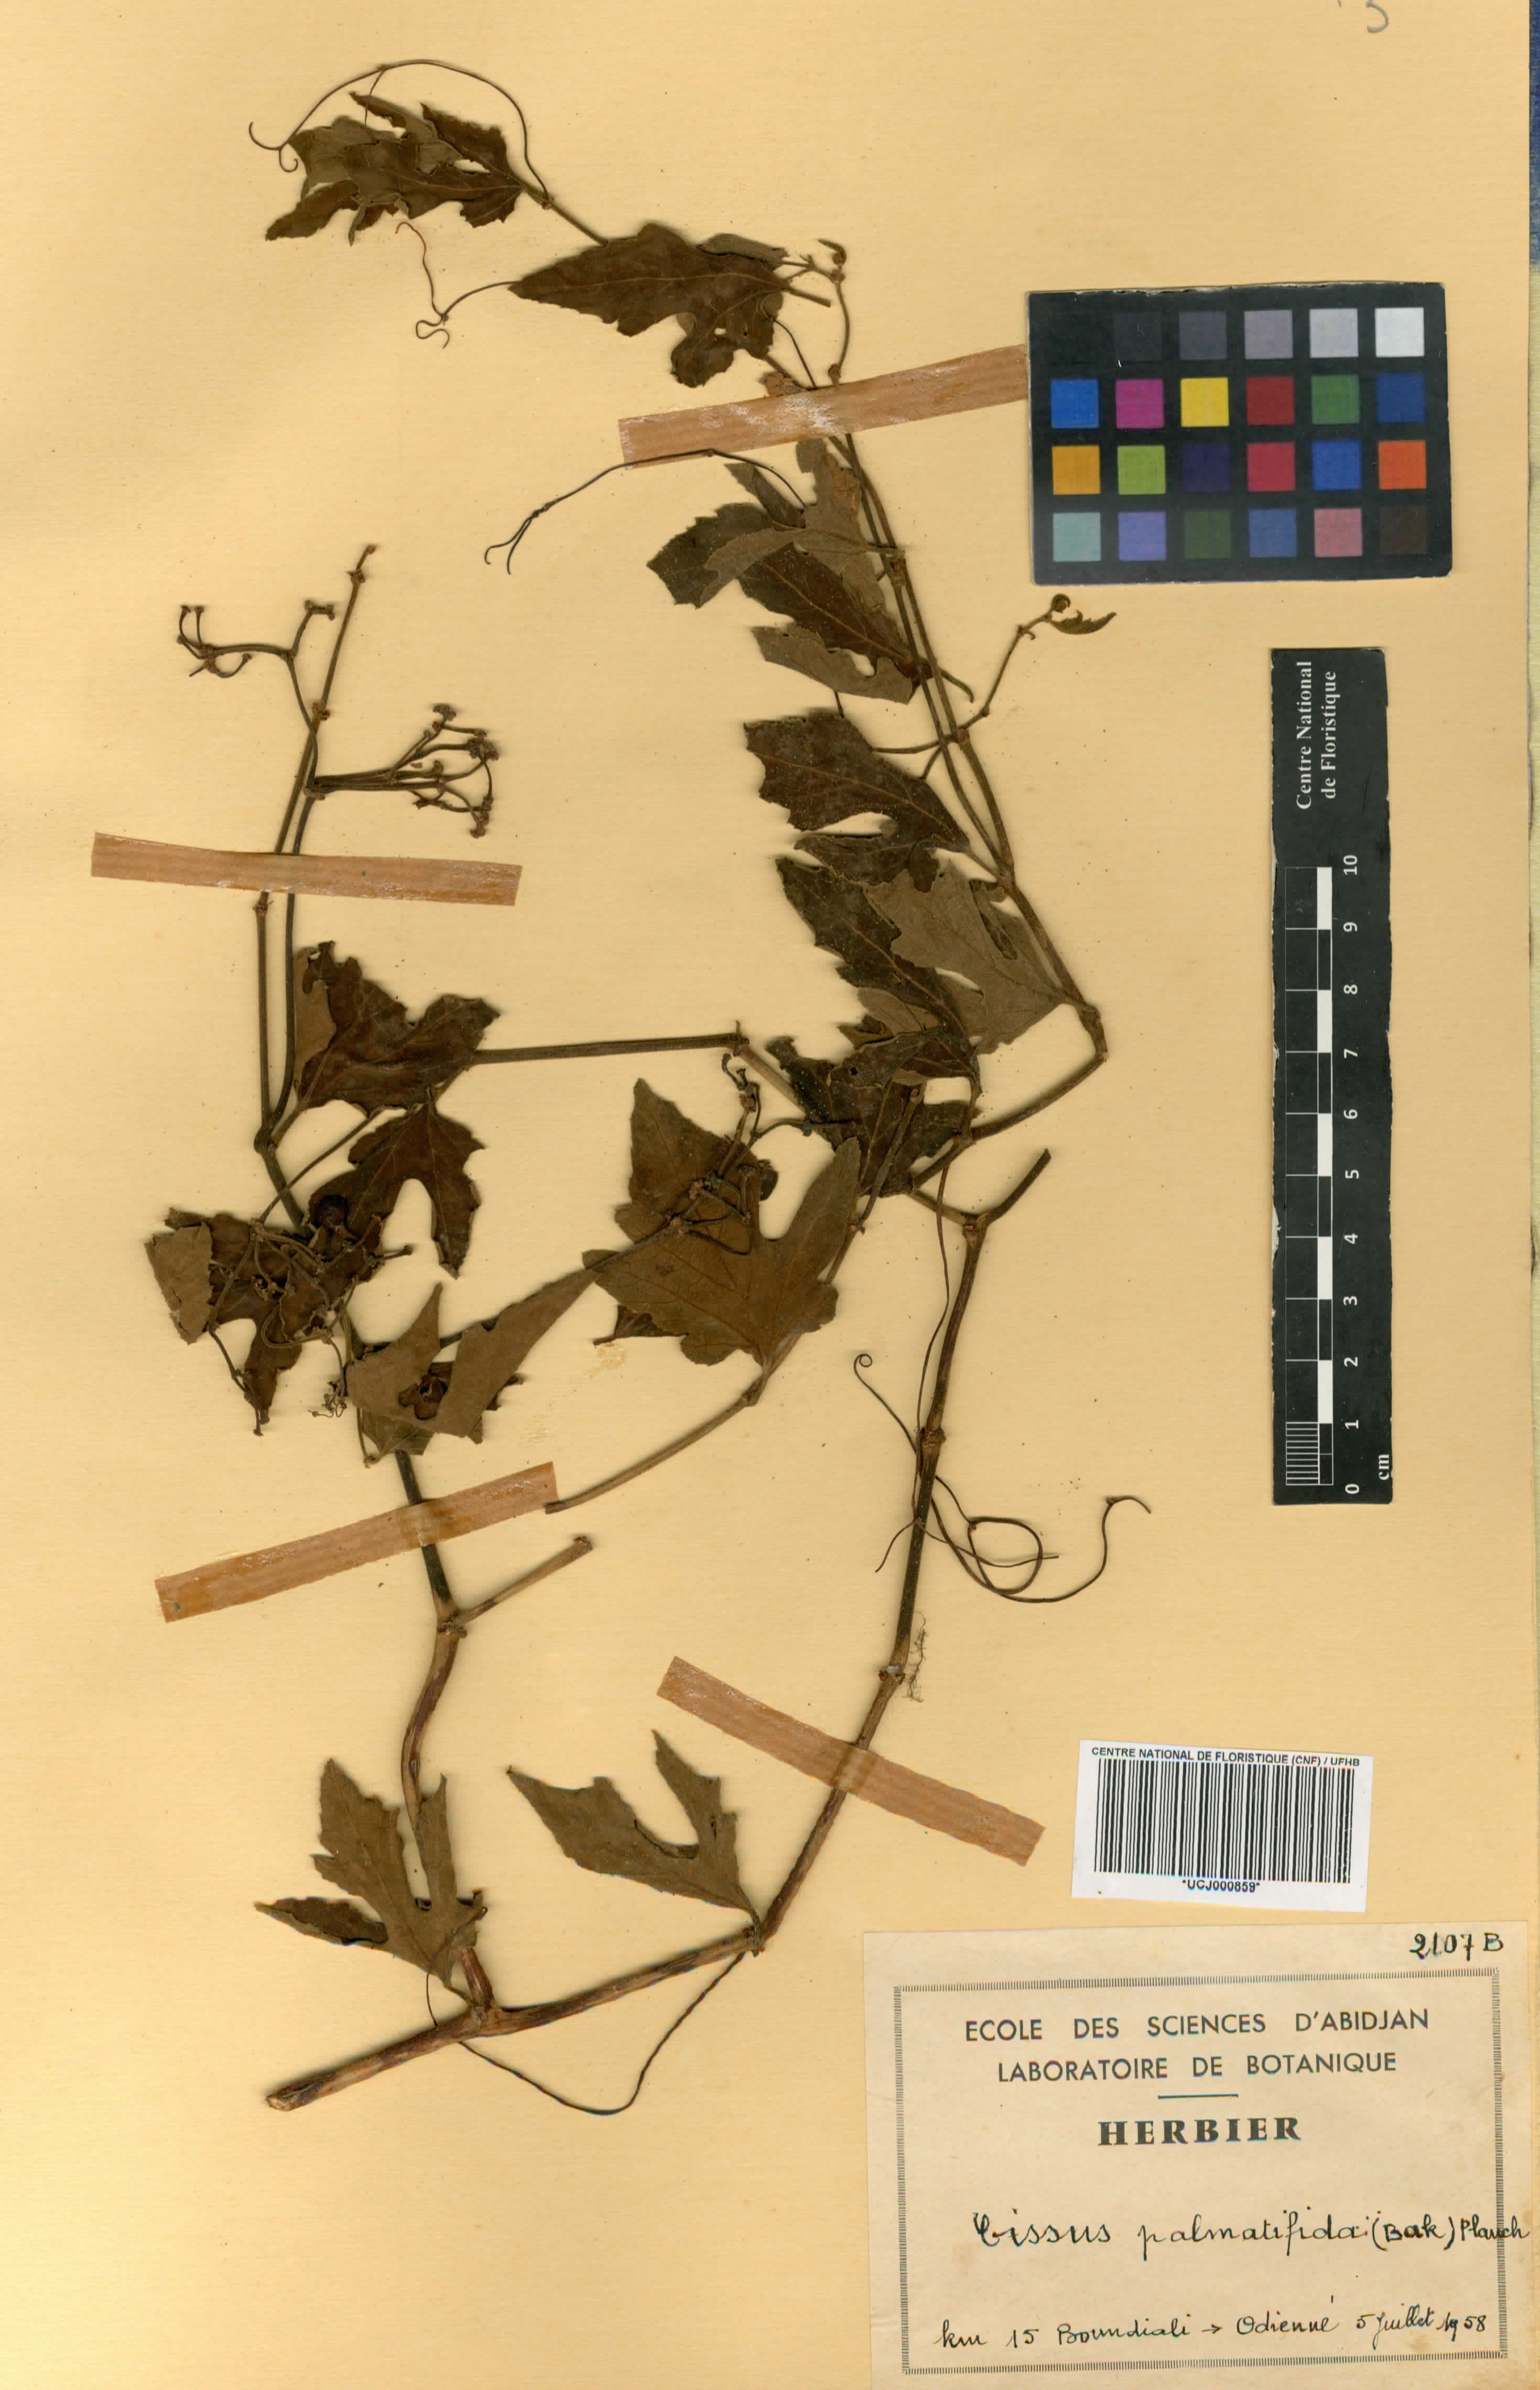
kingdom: Plantae
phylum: Tracheophyta
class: Magnoliopsida
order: Vitales
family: Vitaceae
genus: Cissus
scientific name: Cissus palmatifida
